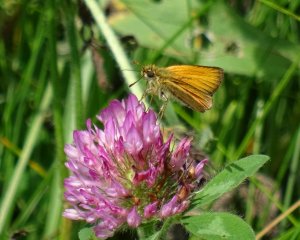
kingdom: Animalia
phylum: Arthropoda
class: Insecta
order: Lepidoptera
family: Hesperiidae
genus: Thymelicus
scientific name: Thymelicus lineola
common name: European Skipper
